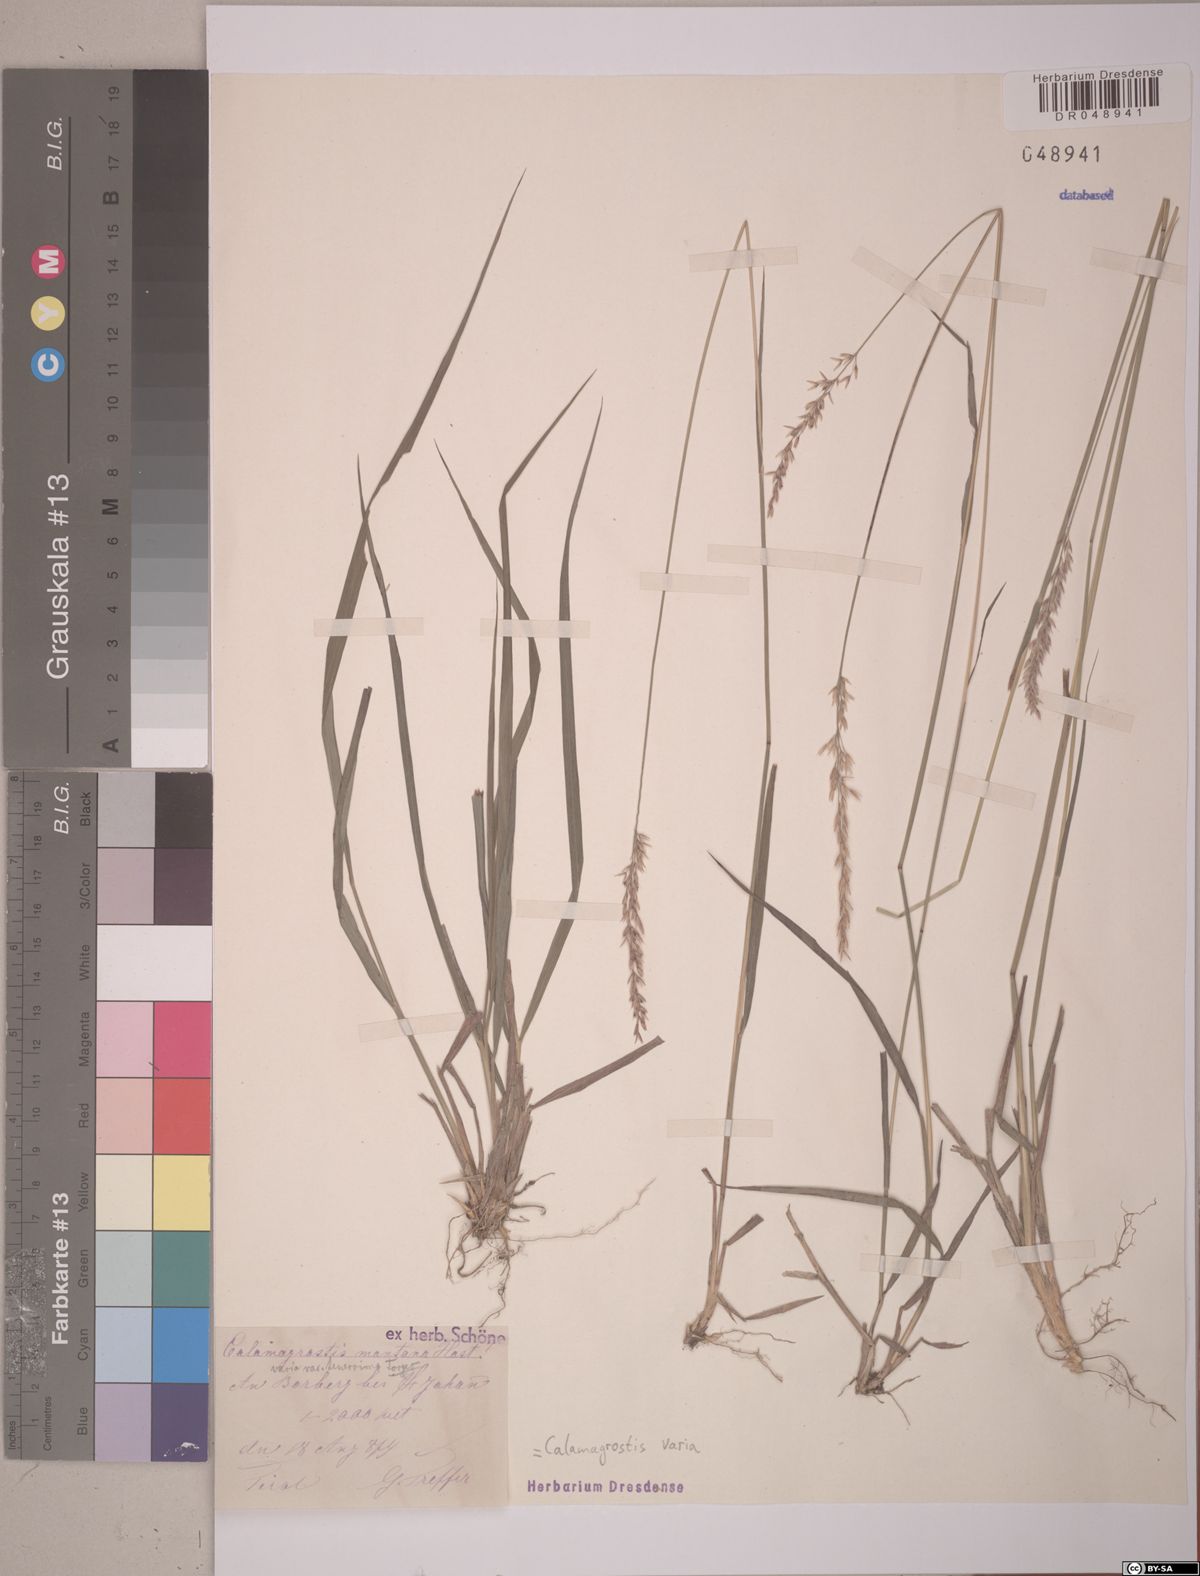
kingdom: Plantae
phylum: Tracheophyta
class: Liliopsida
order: Poales
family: Poaceae
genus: Calamagrostis
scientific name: Calamagrostis varia
